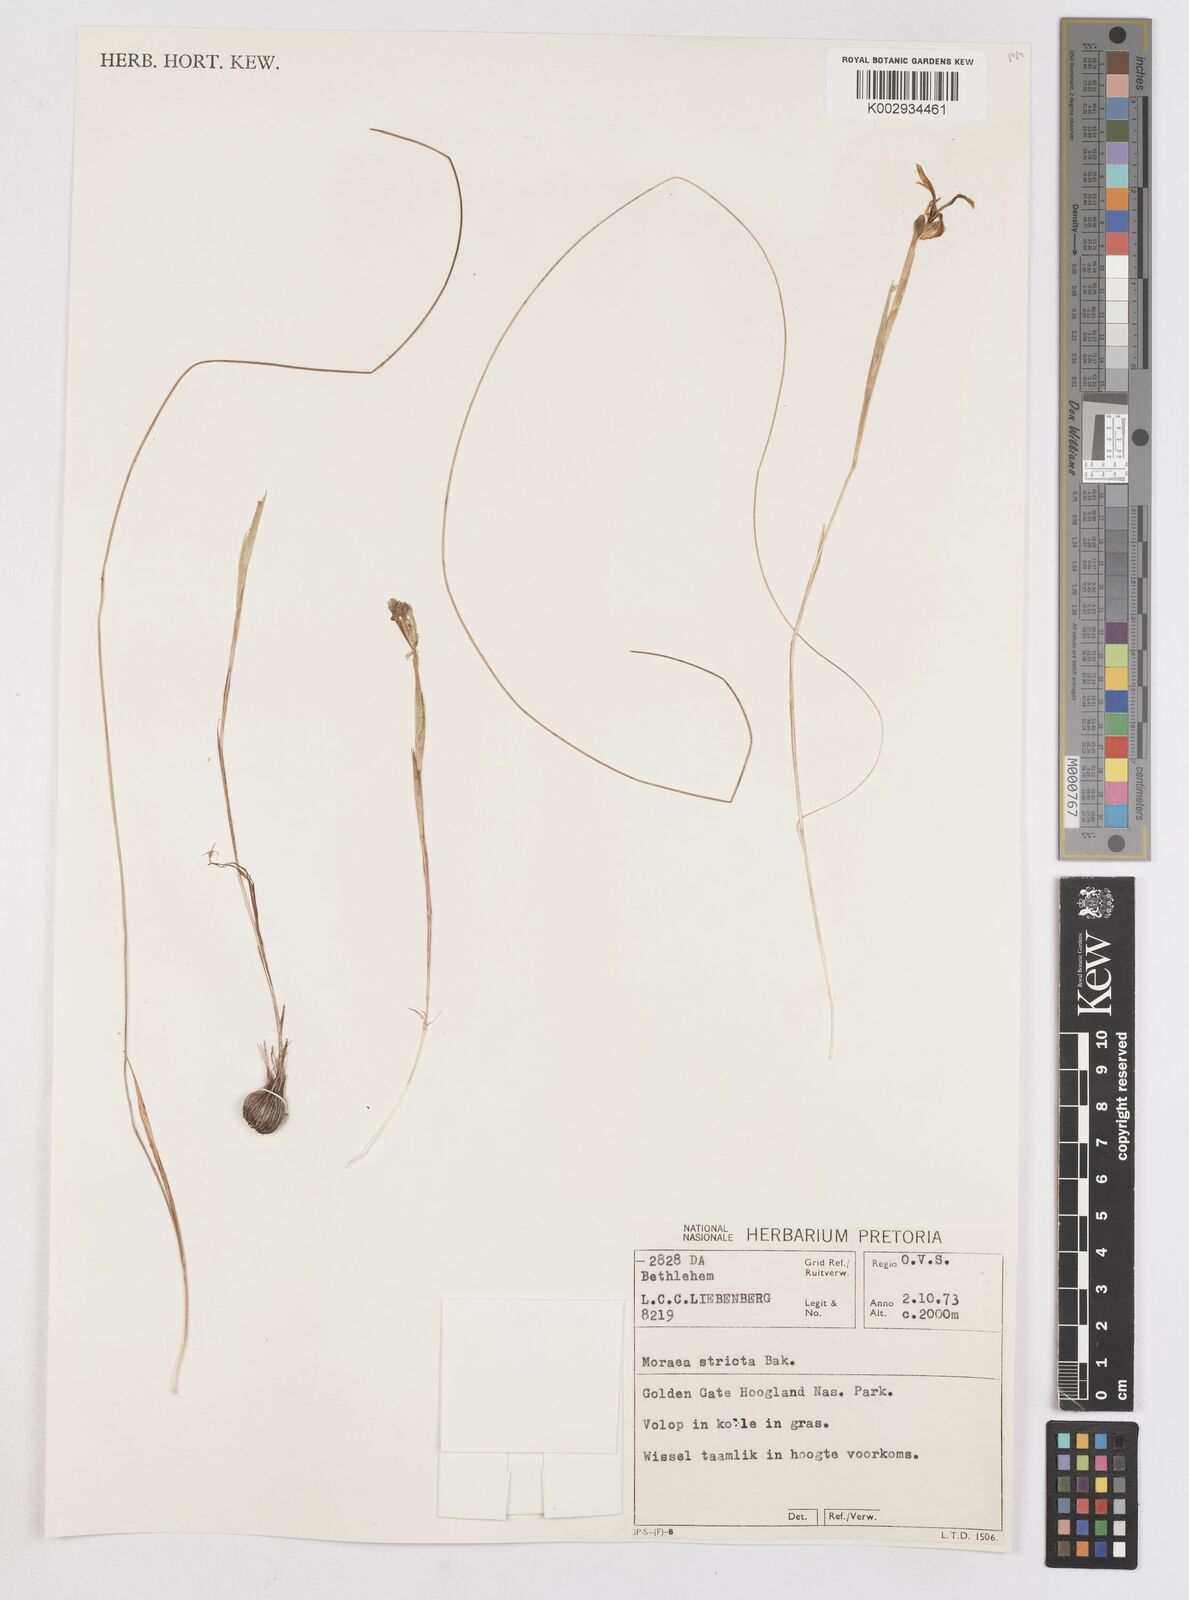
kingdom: Plantae
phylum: Tracheophyta
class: Liliopsida
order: Asparagales
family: Iridaceae
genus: Moraea
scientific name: Moraea stricta
